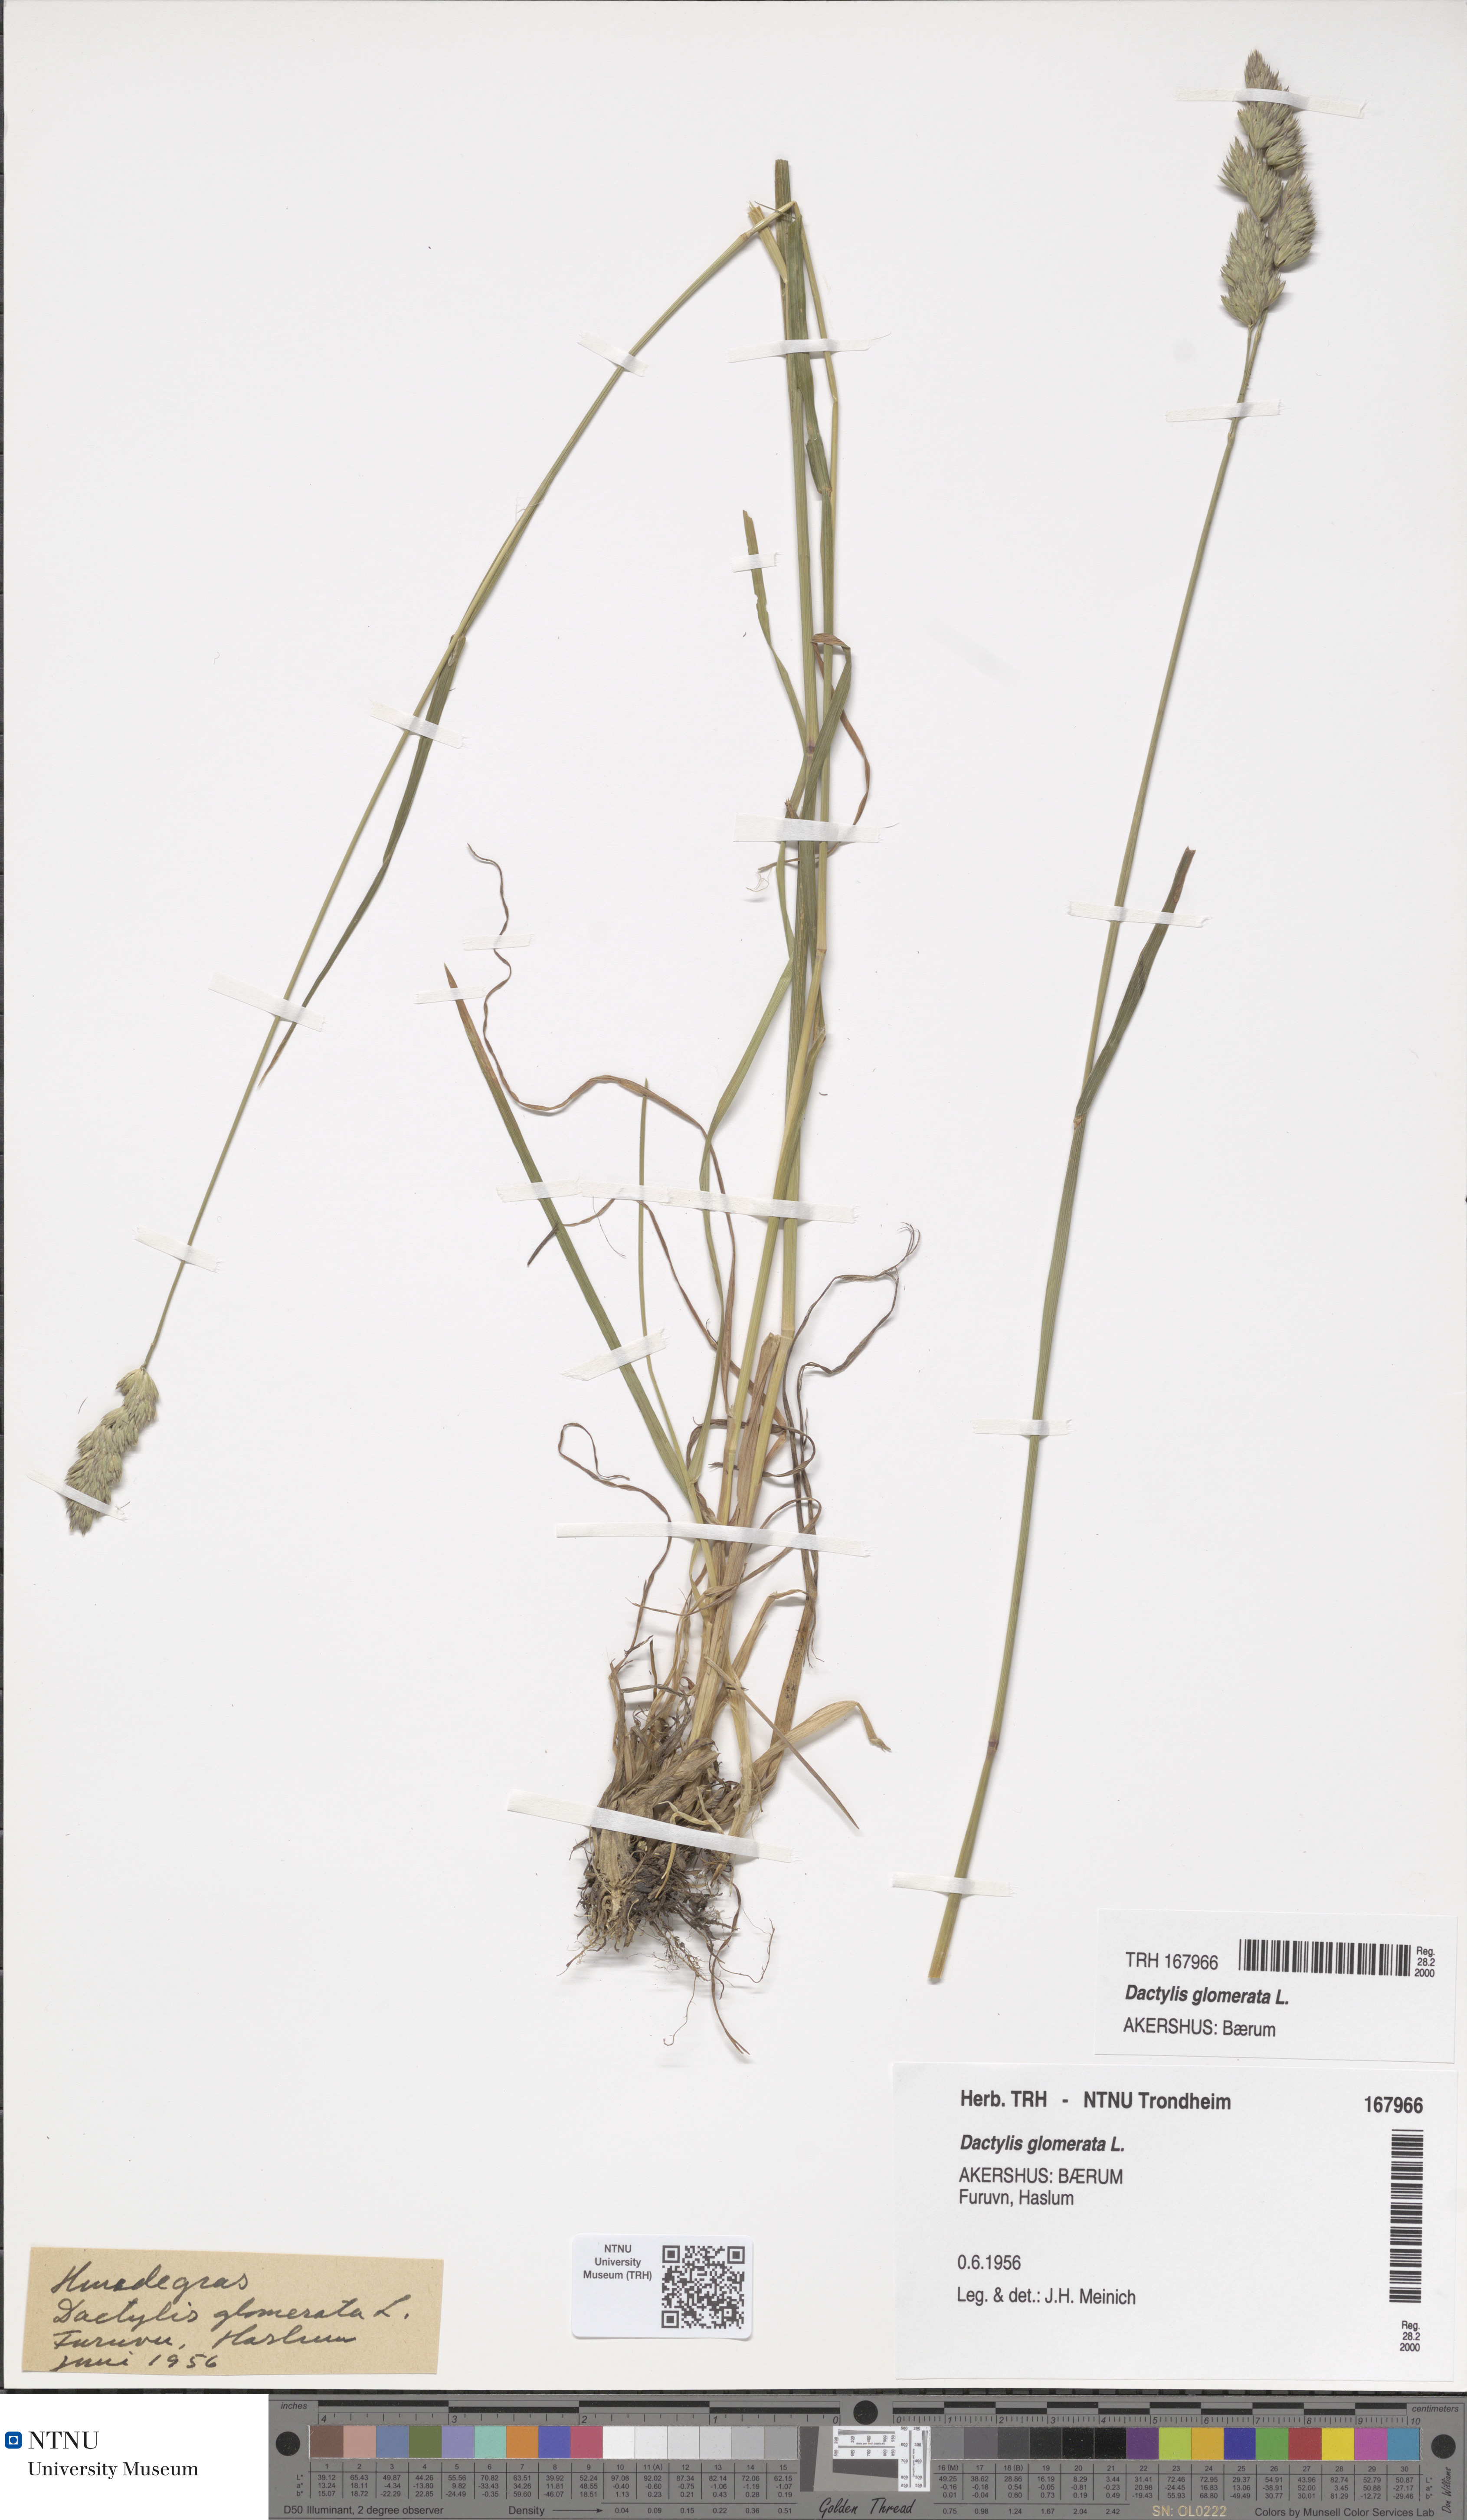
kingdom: Plantae
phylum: Tracheophyta
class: Liliopsida
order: Poales
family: Poaceae
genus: Dactylis
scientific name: Dactylis glomerata
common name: Orchardgrass
